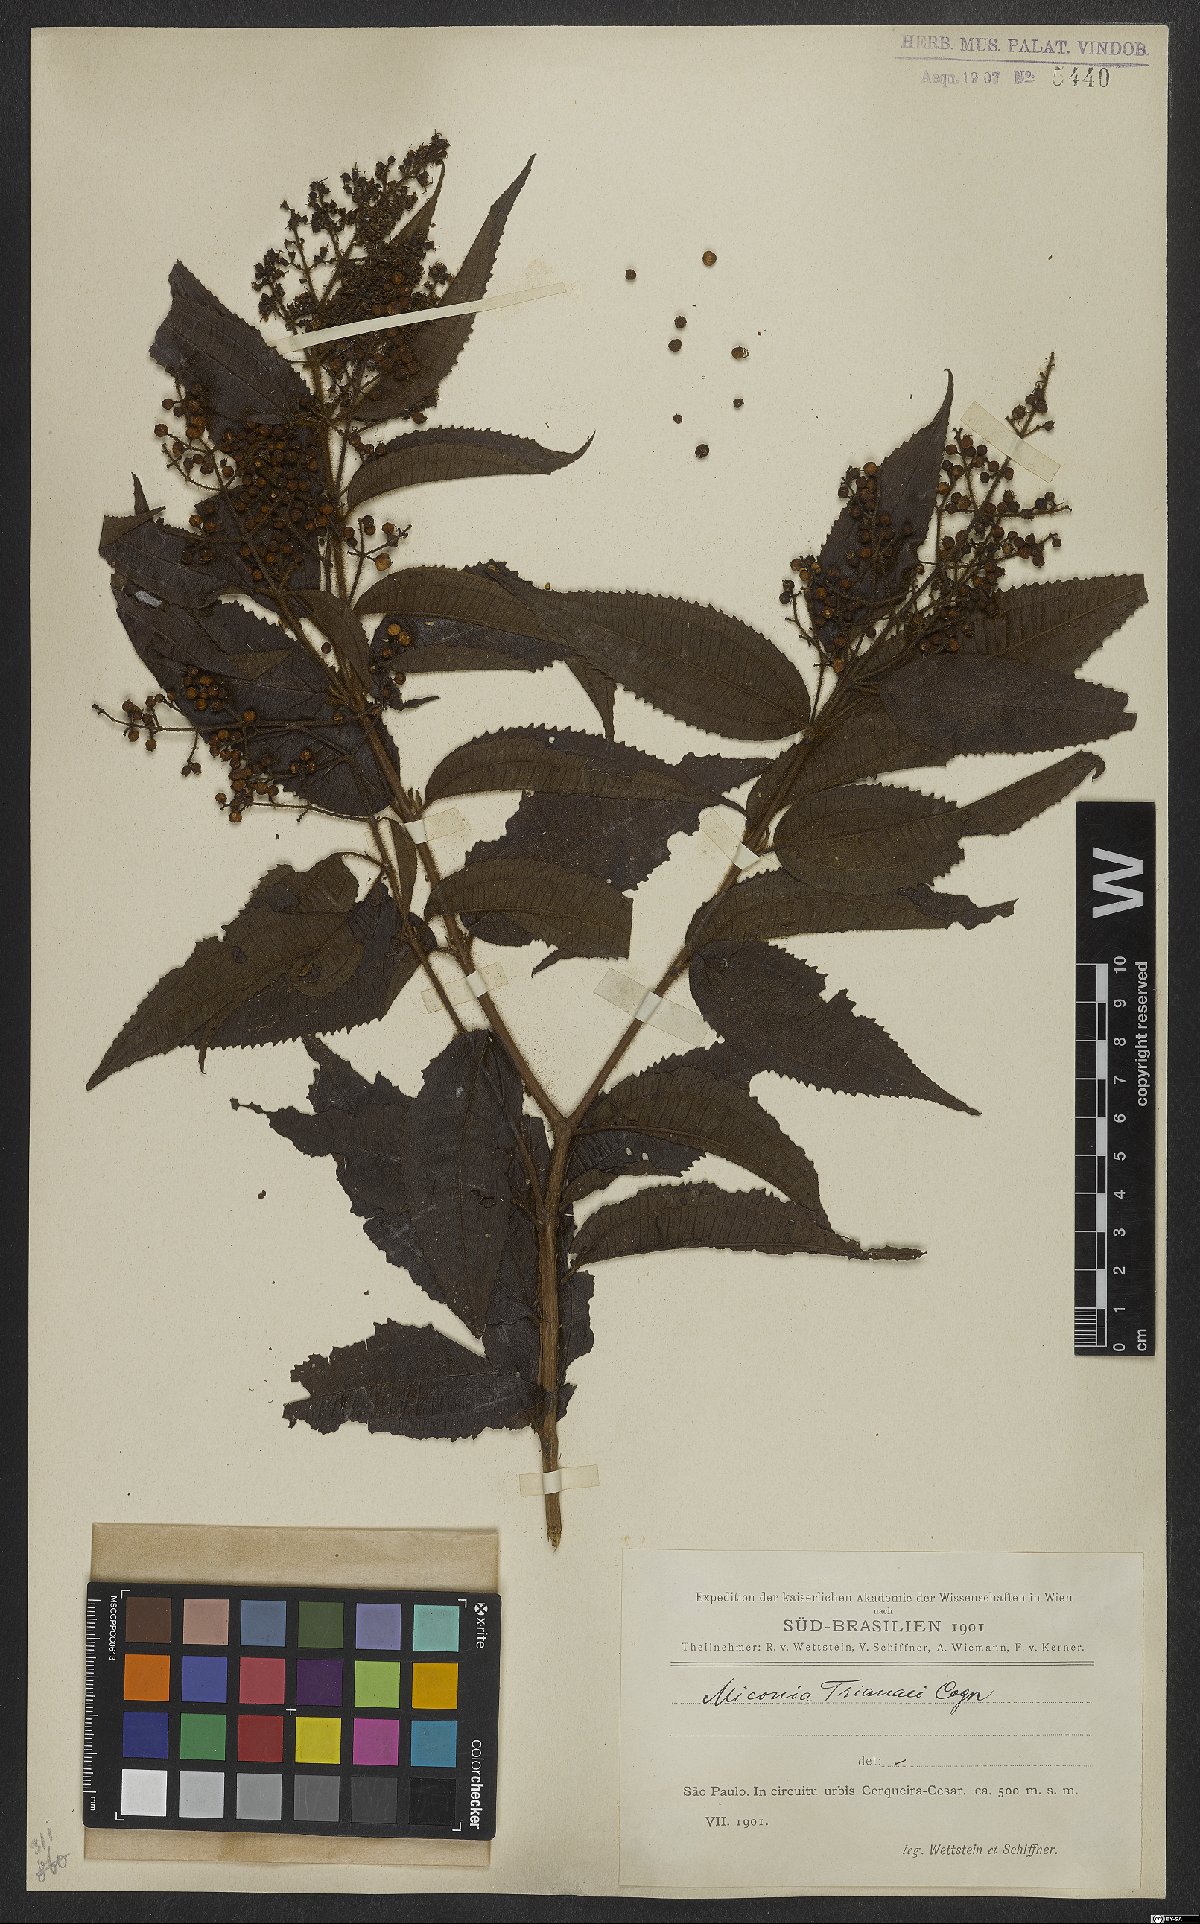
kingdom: Plantae
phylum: Tracheophyta
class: Magnoliopsida
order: Myrtales
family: Melastomataceae
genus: Miconia
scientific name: Miconia trianae
